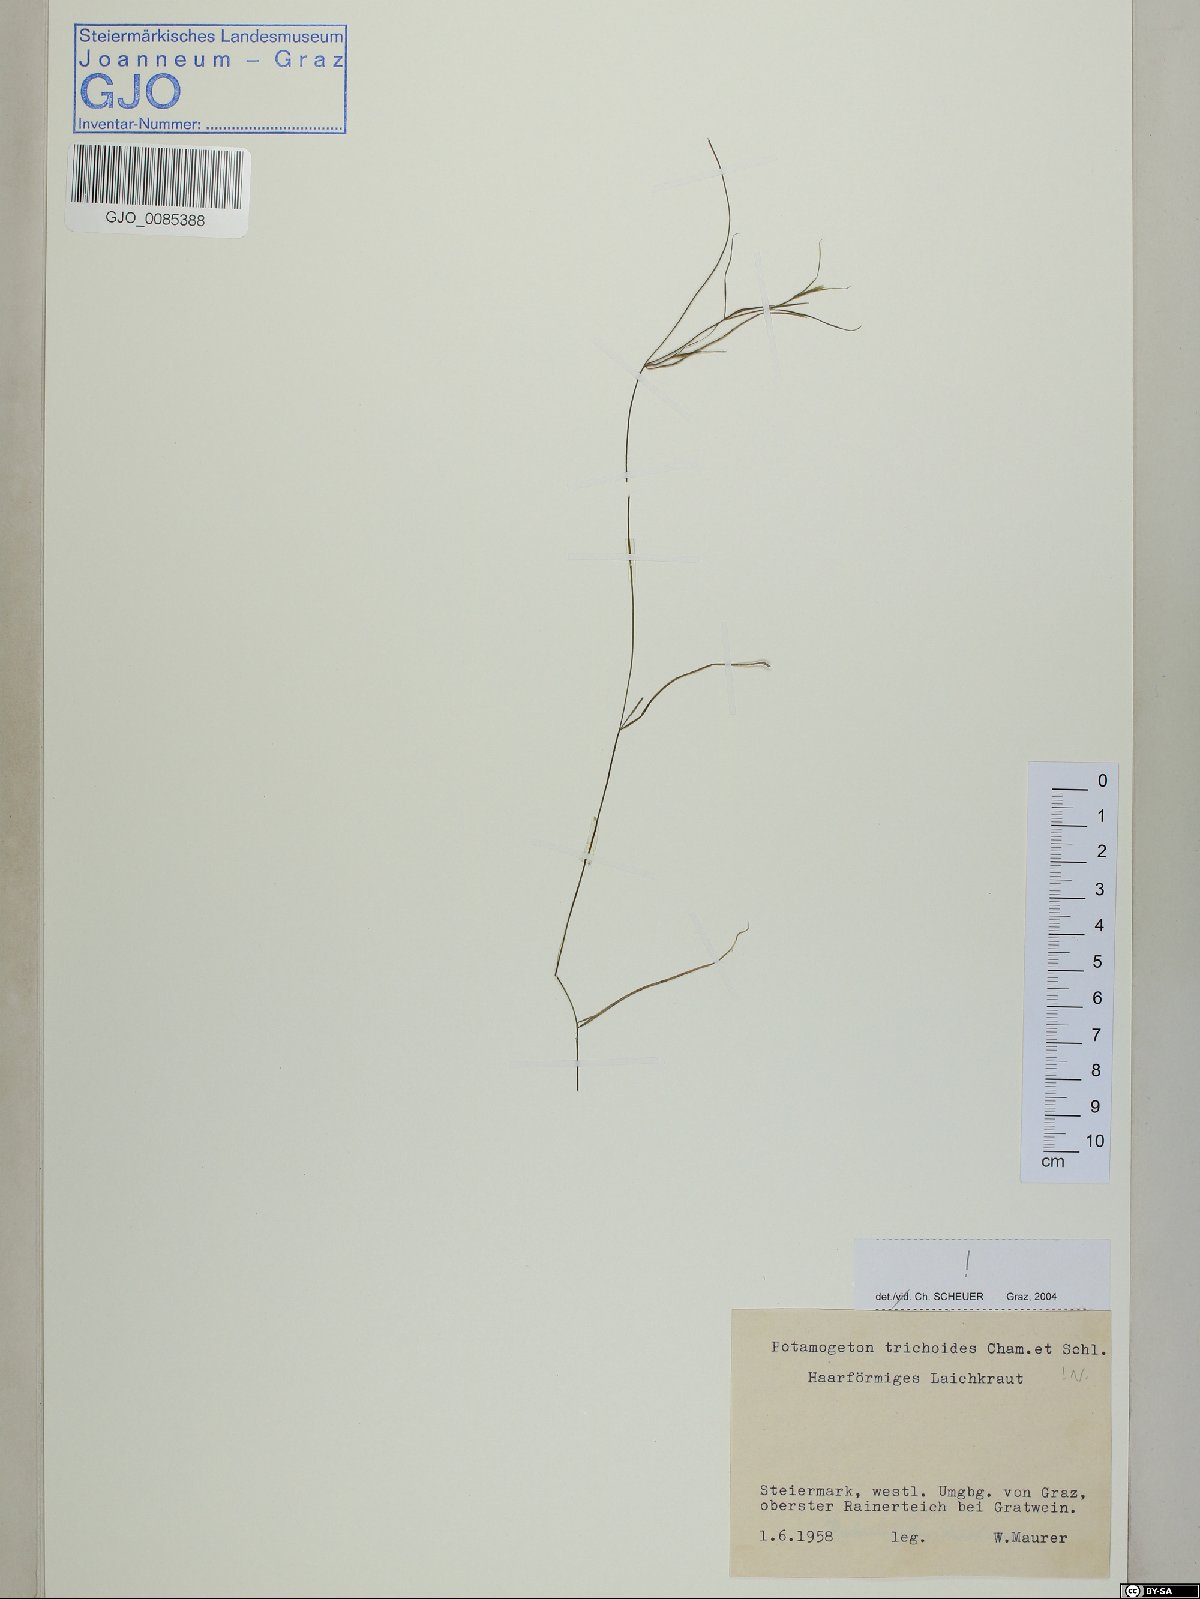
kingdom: Plantae
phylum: Tracheophyta
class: Liliopsida
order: Alismatales
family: Potamogetonaceae
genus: Potamogeton
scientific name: Potamogeton trichoides
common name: Hairlike pondweed
